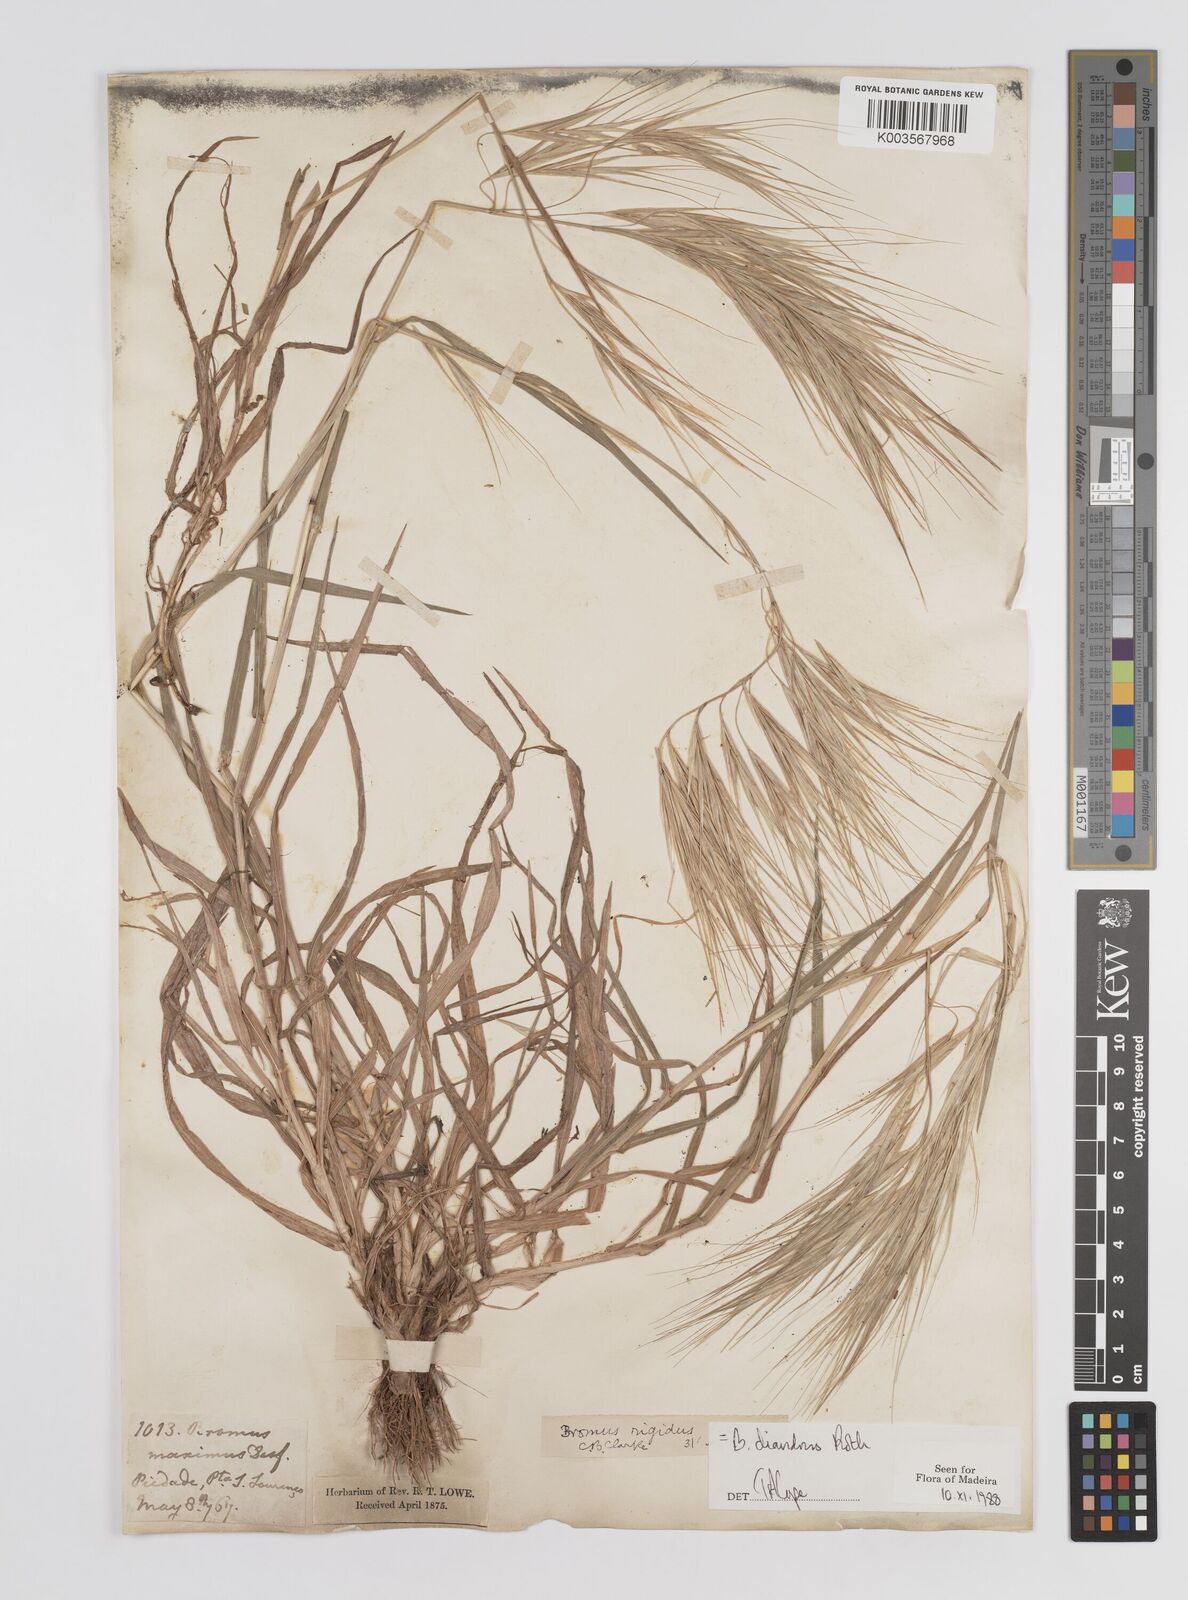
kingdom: Plantae
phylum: Tracheophyta
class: Liliopsida
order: Poales
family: Poaceae
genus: Bromus
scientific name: Bromus diandrus
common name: Ripgut brome
